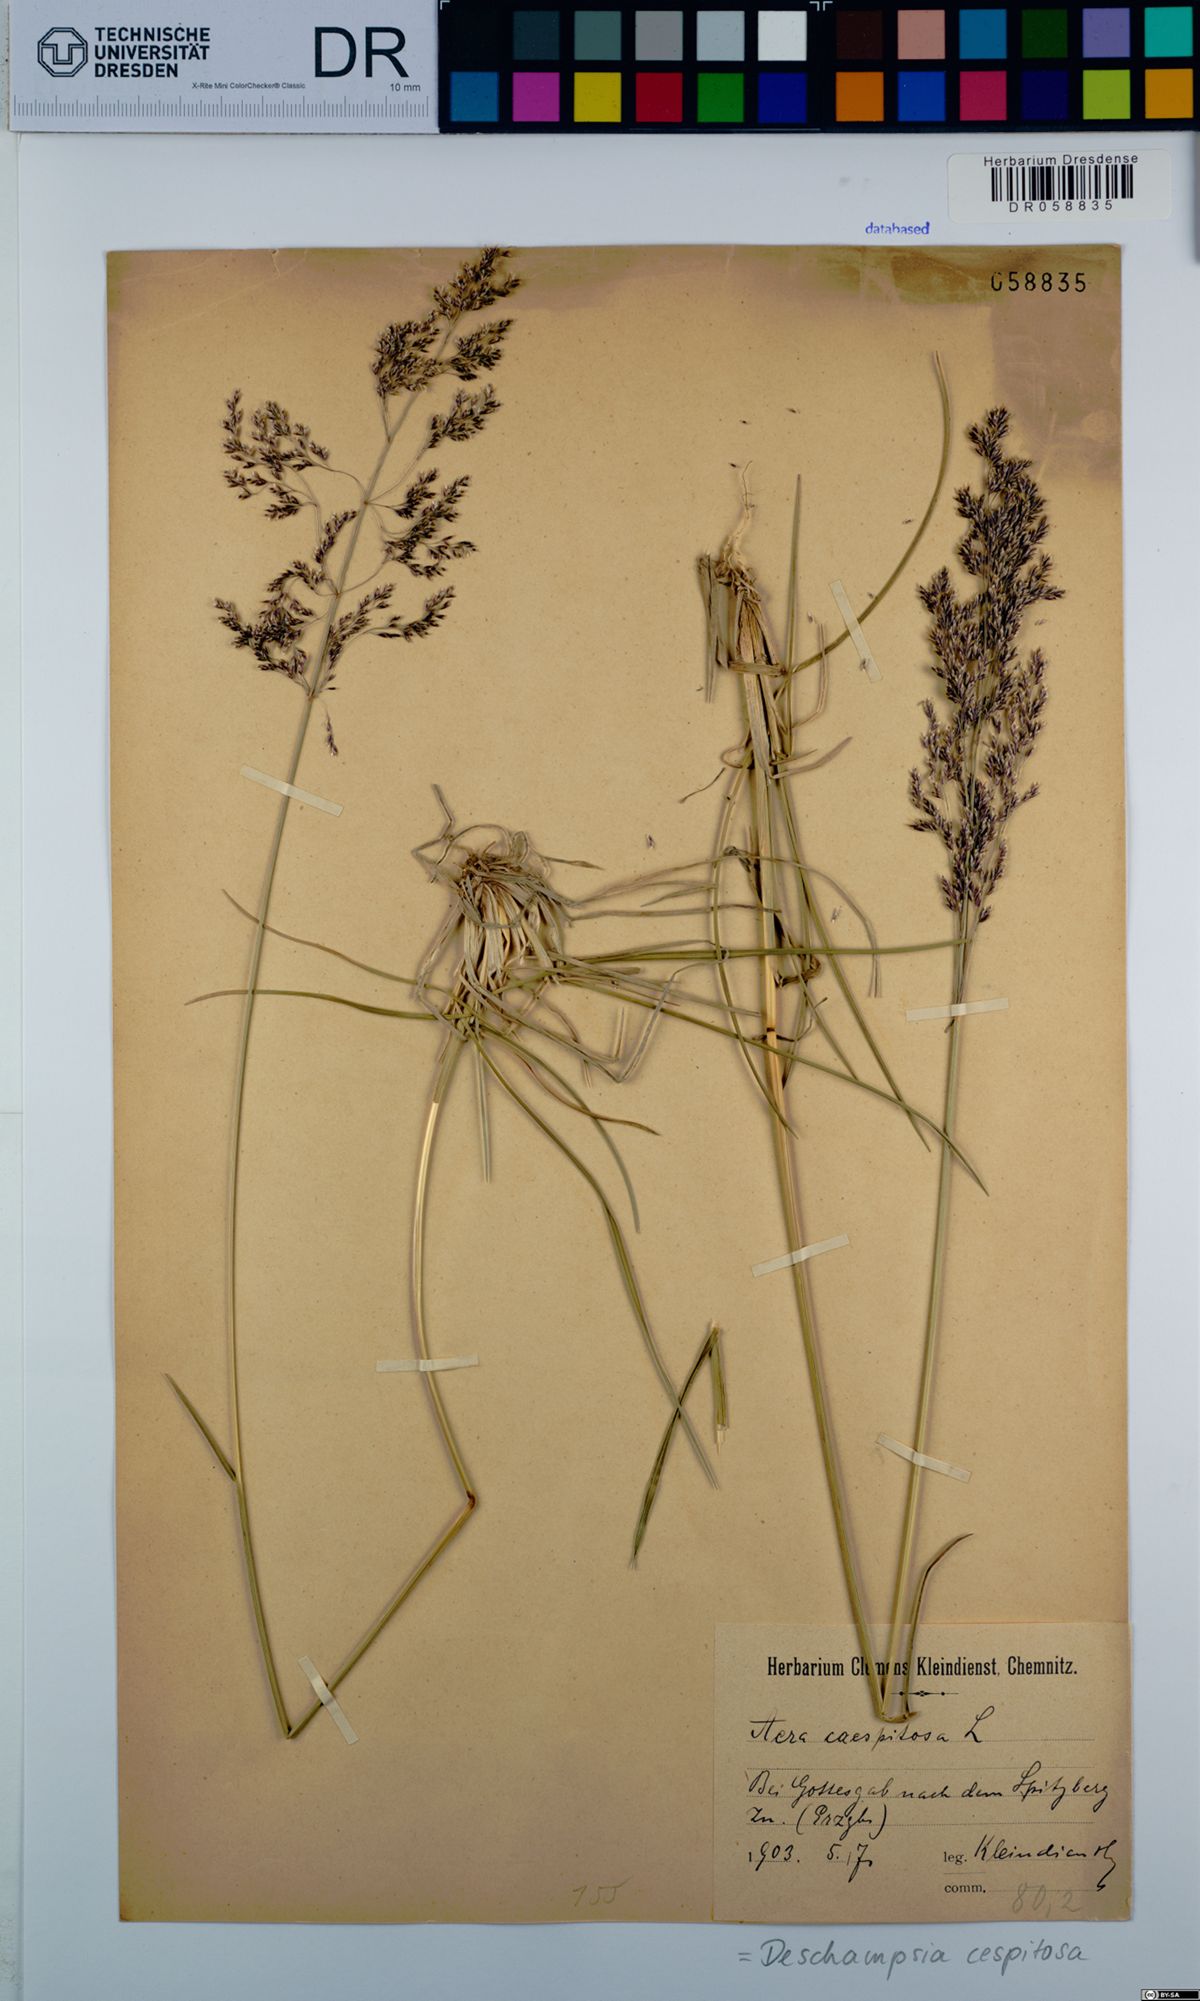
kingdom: Plantae
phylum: Tracheophyta
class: Liliopsida
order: Poales
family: Poaceae
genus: Deschampsia
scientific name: Deschampsia cespitosa
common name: Tufted hair-grass
